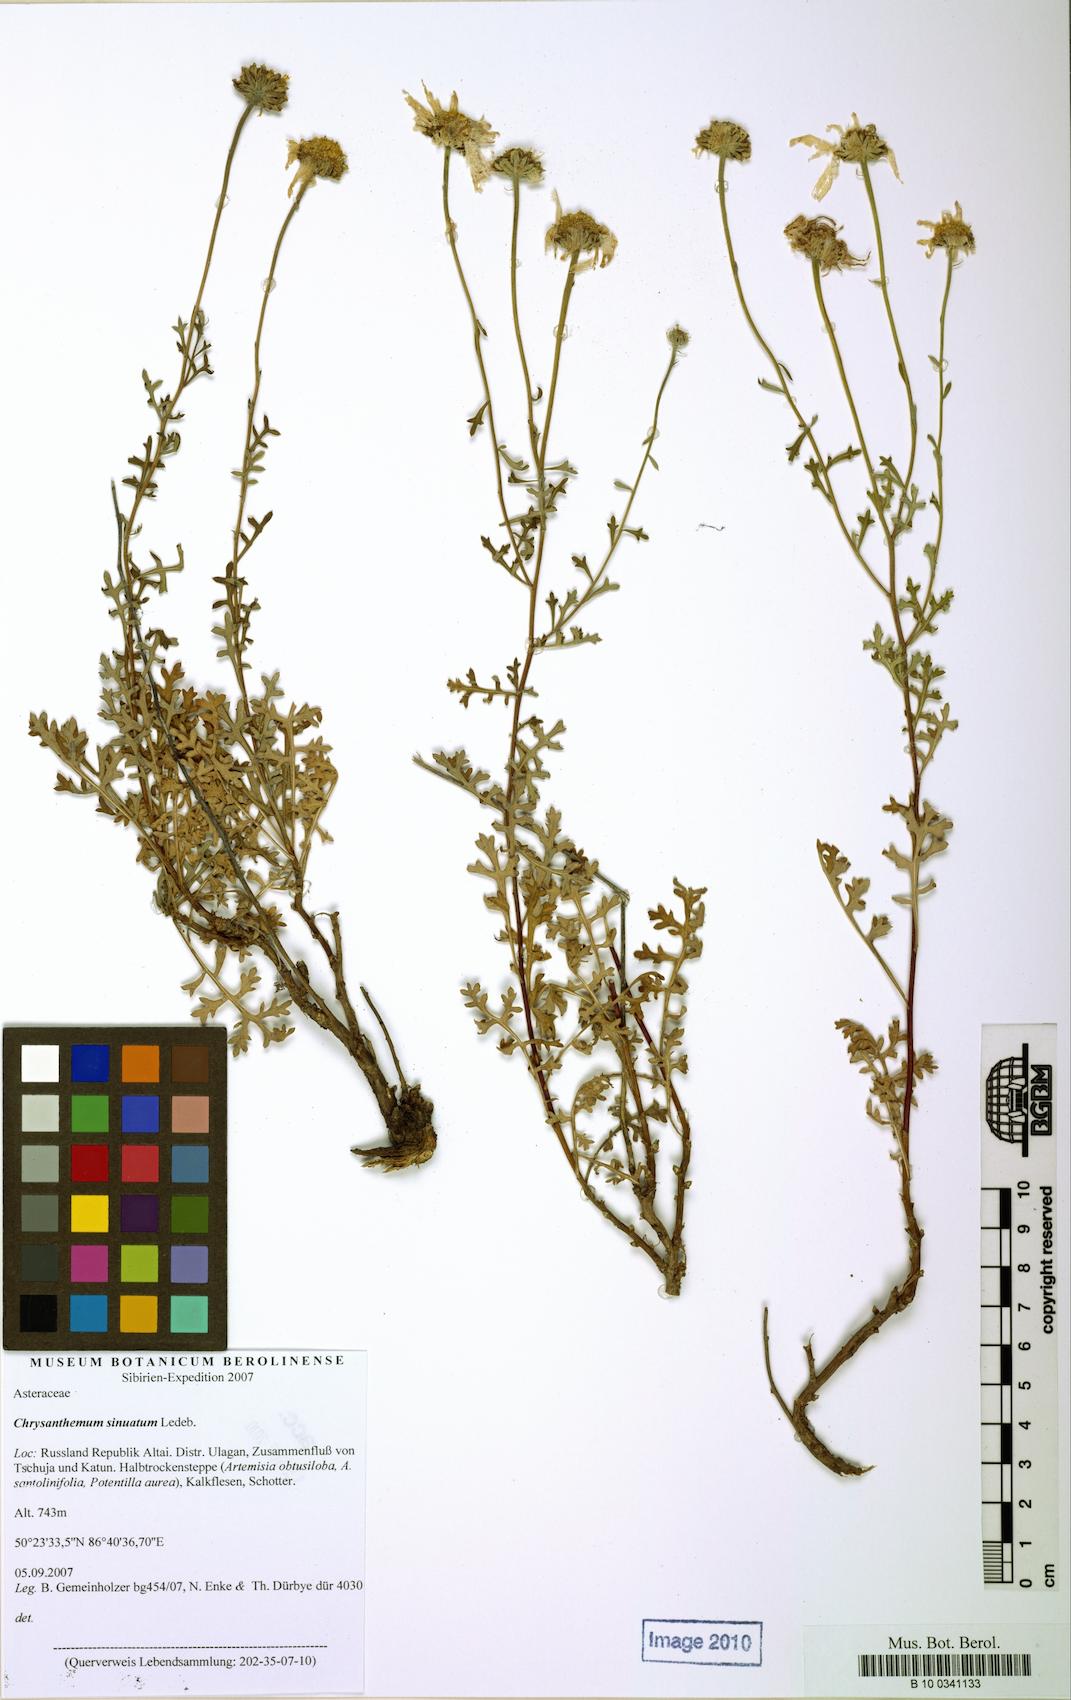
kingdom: Plantae
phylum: Tracheophyta
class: Magnoliopsida
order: Asterales
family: Asteraceae
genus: Chrysanthemum
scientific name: Chrysanthemum sinuatum
